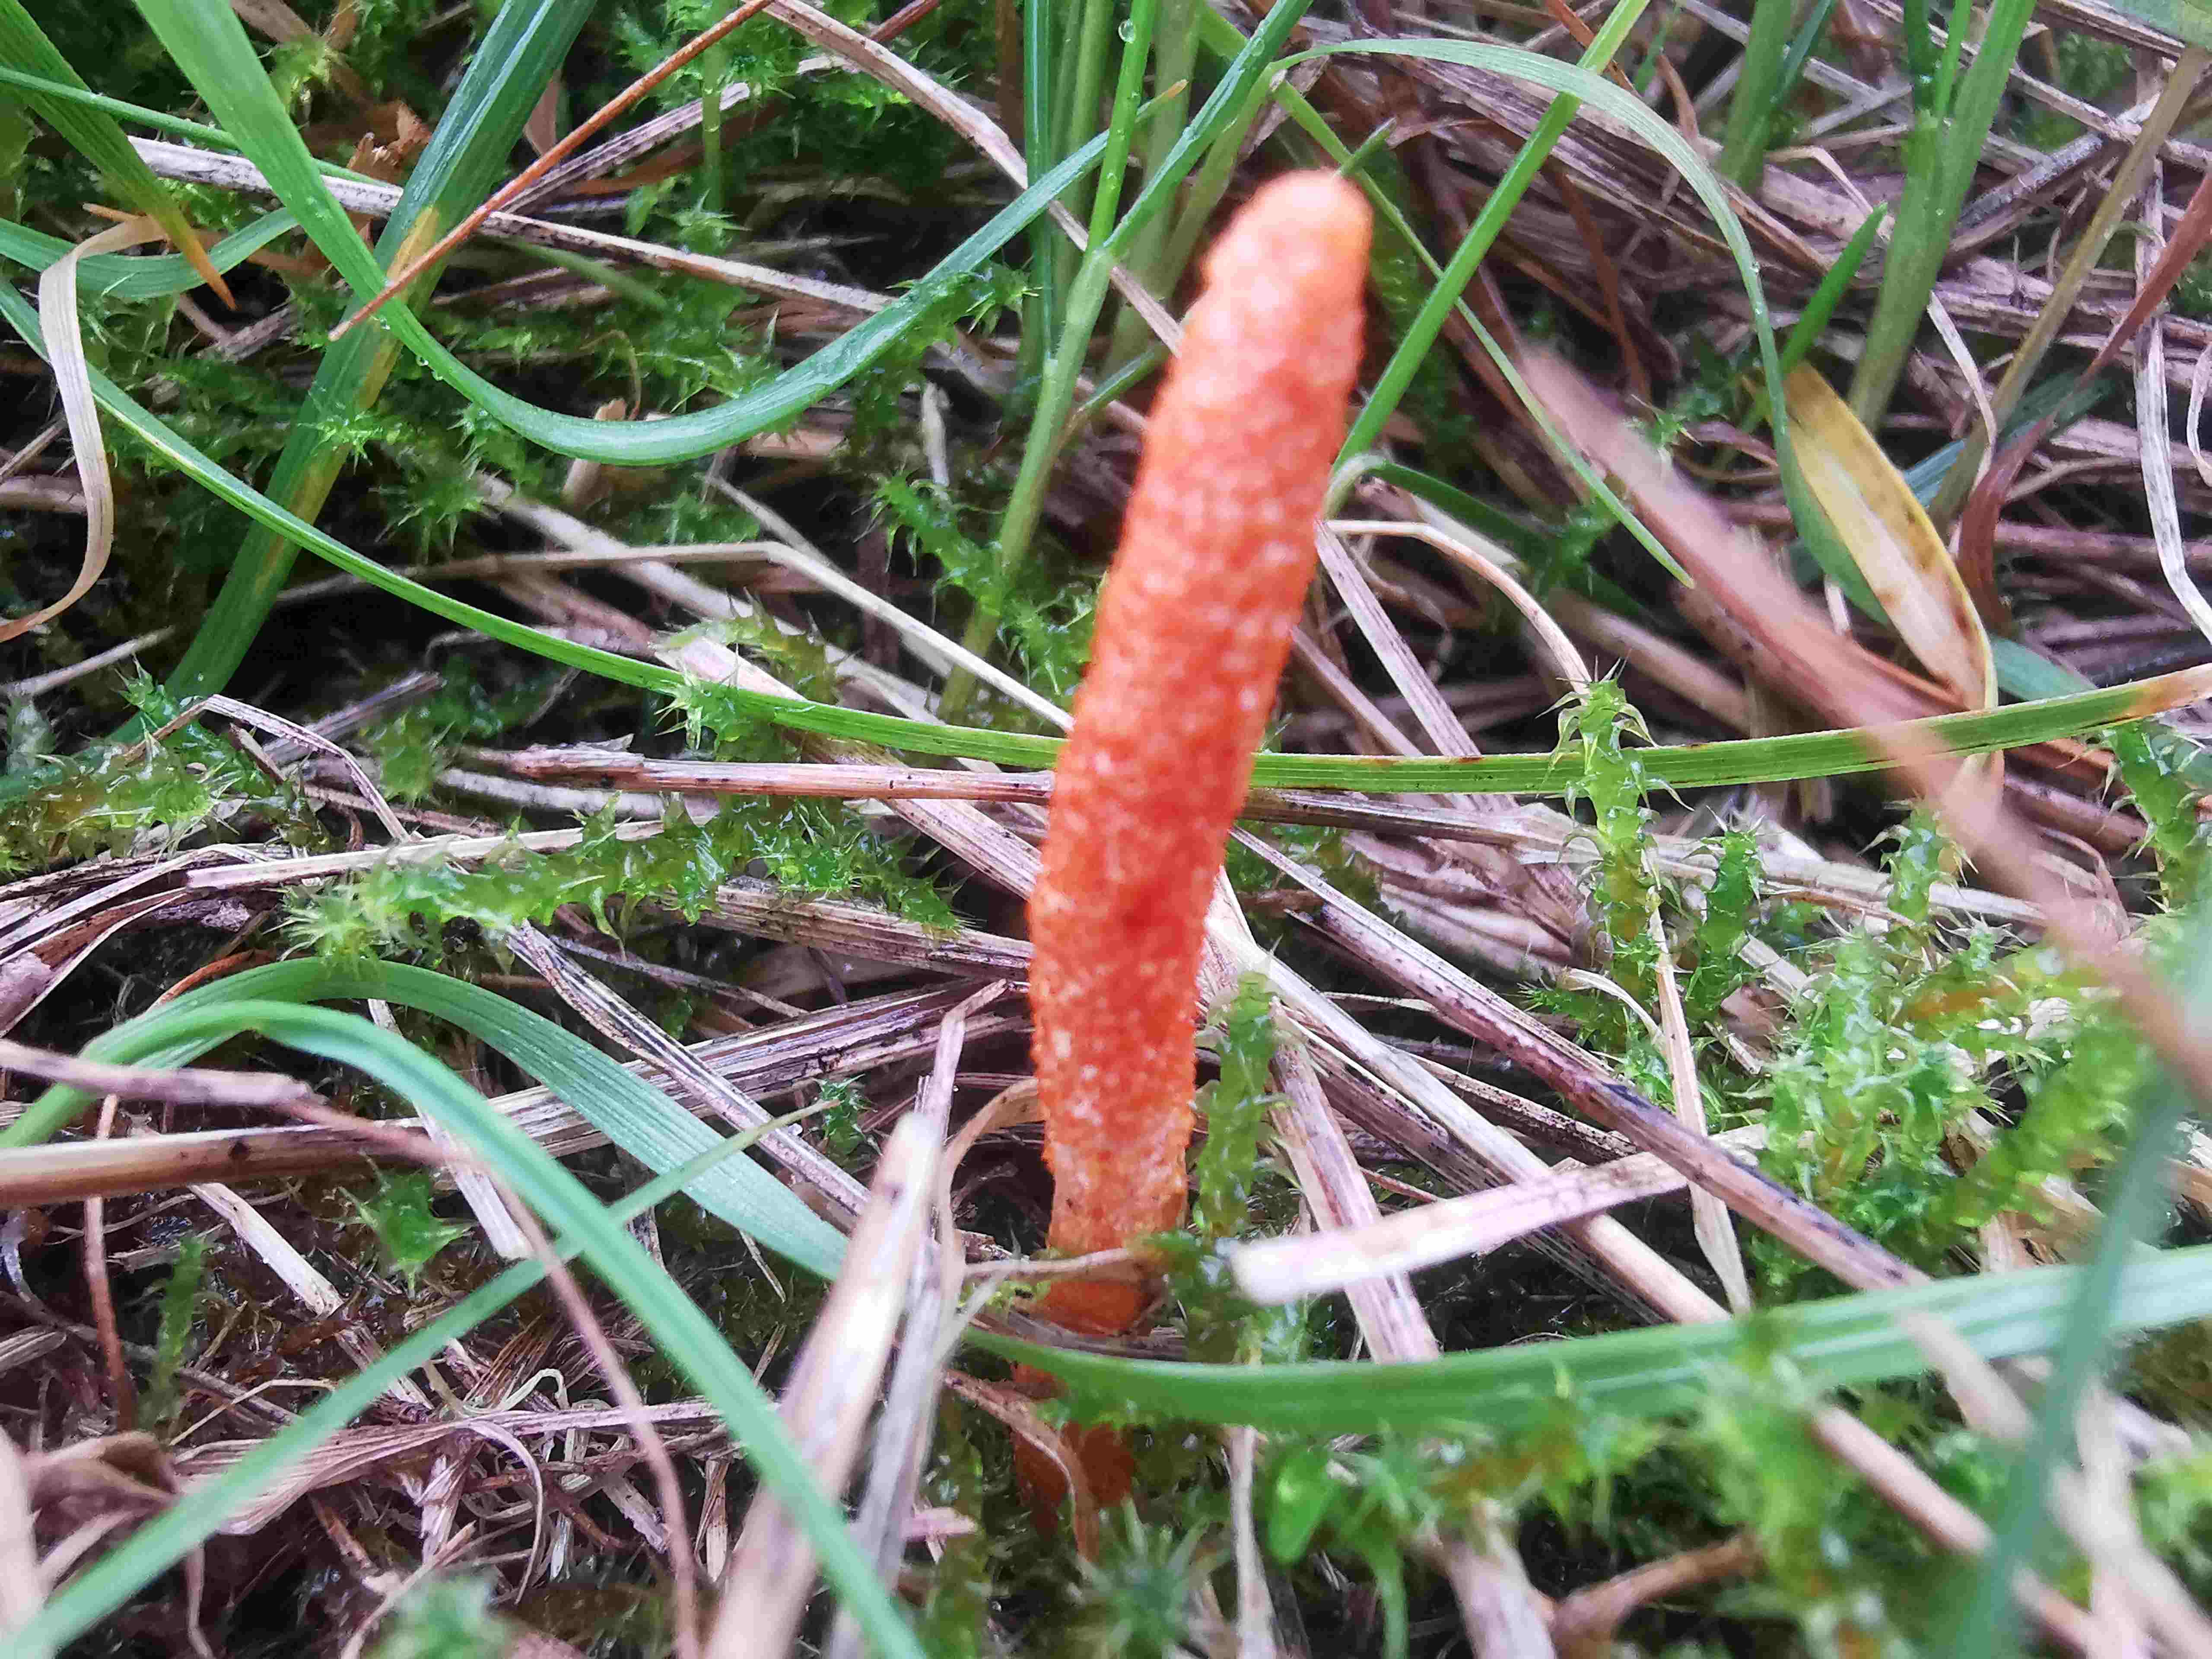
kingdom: Fungi
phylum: Ascomycota
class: Sordariomycetes
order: Hypocreales
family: Cordycipitaceae
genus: Cordyceps
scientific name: Cordyceps militaris
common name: puppe-snyltekølle
